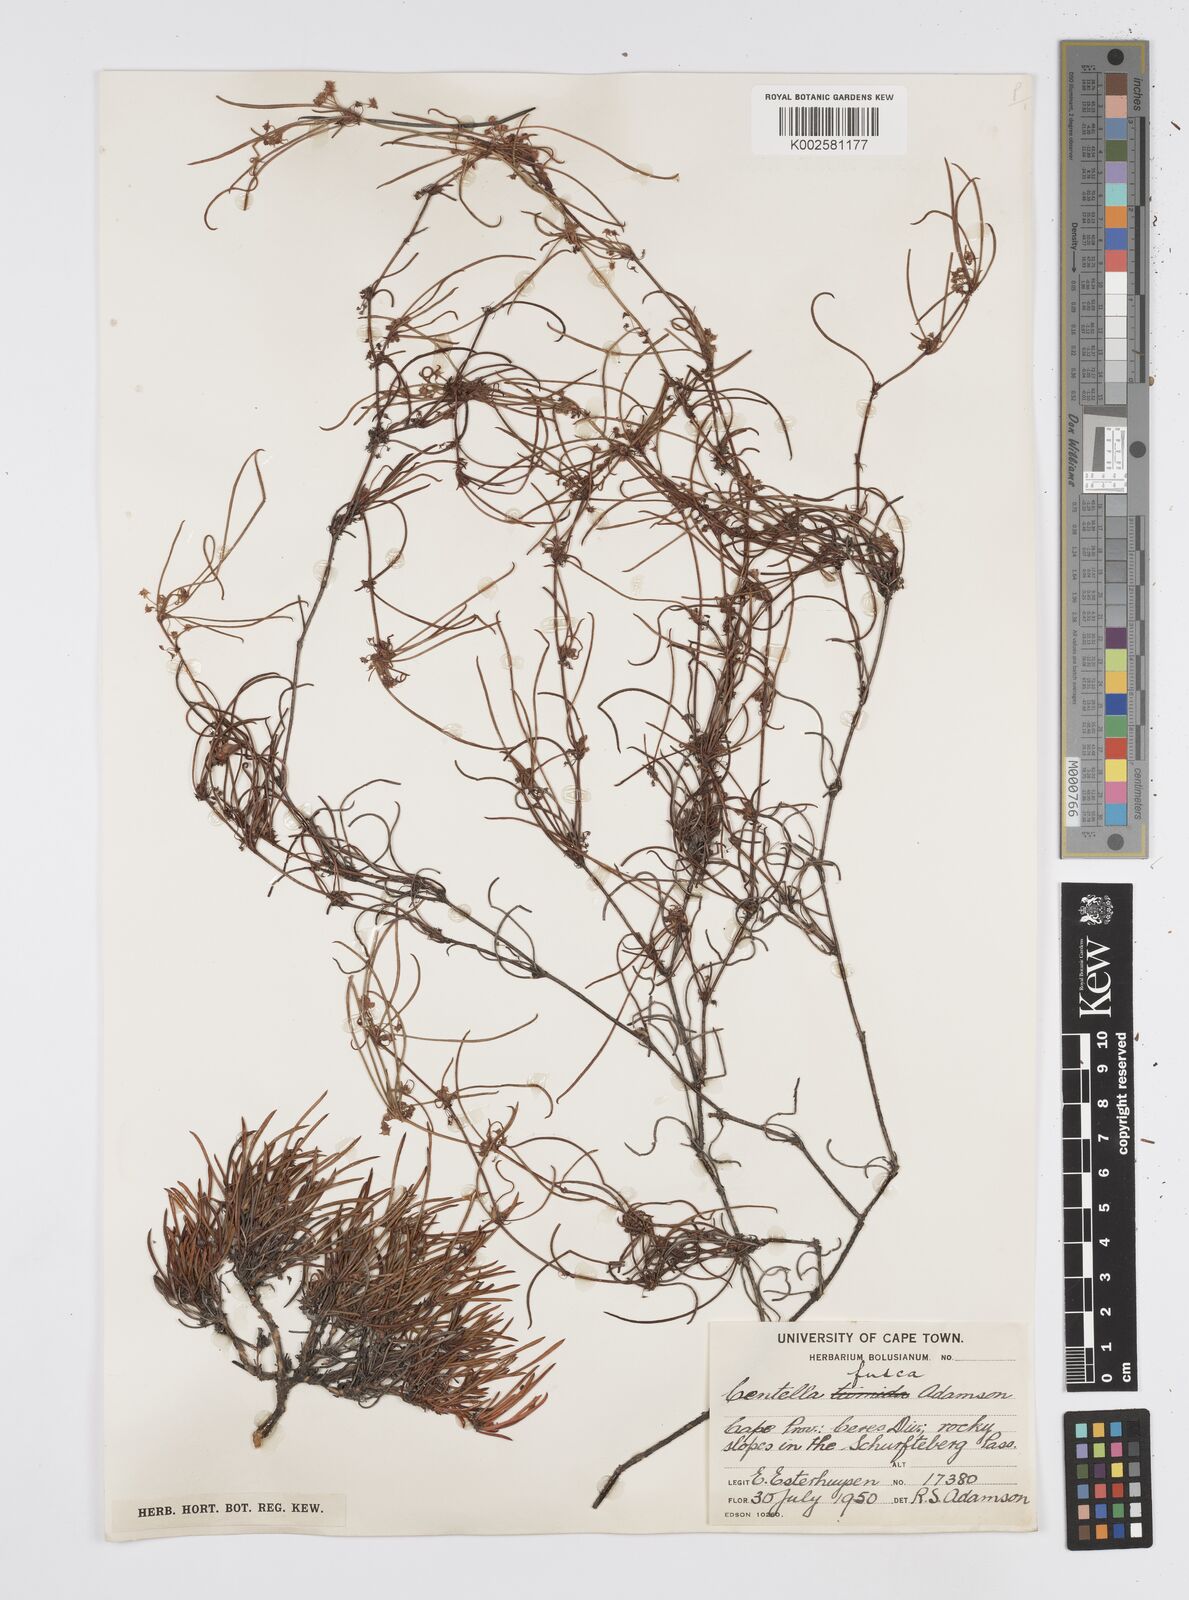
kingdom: Plantae
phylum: Tracheophyta
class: Magnoliopsida
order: Apiales
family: Apiaceae
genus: Centella
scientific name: Centella fusca
